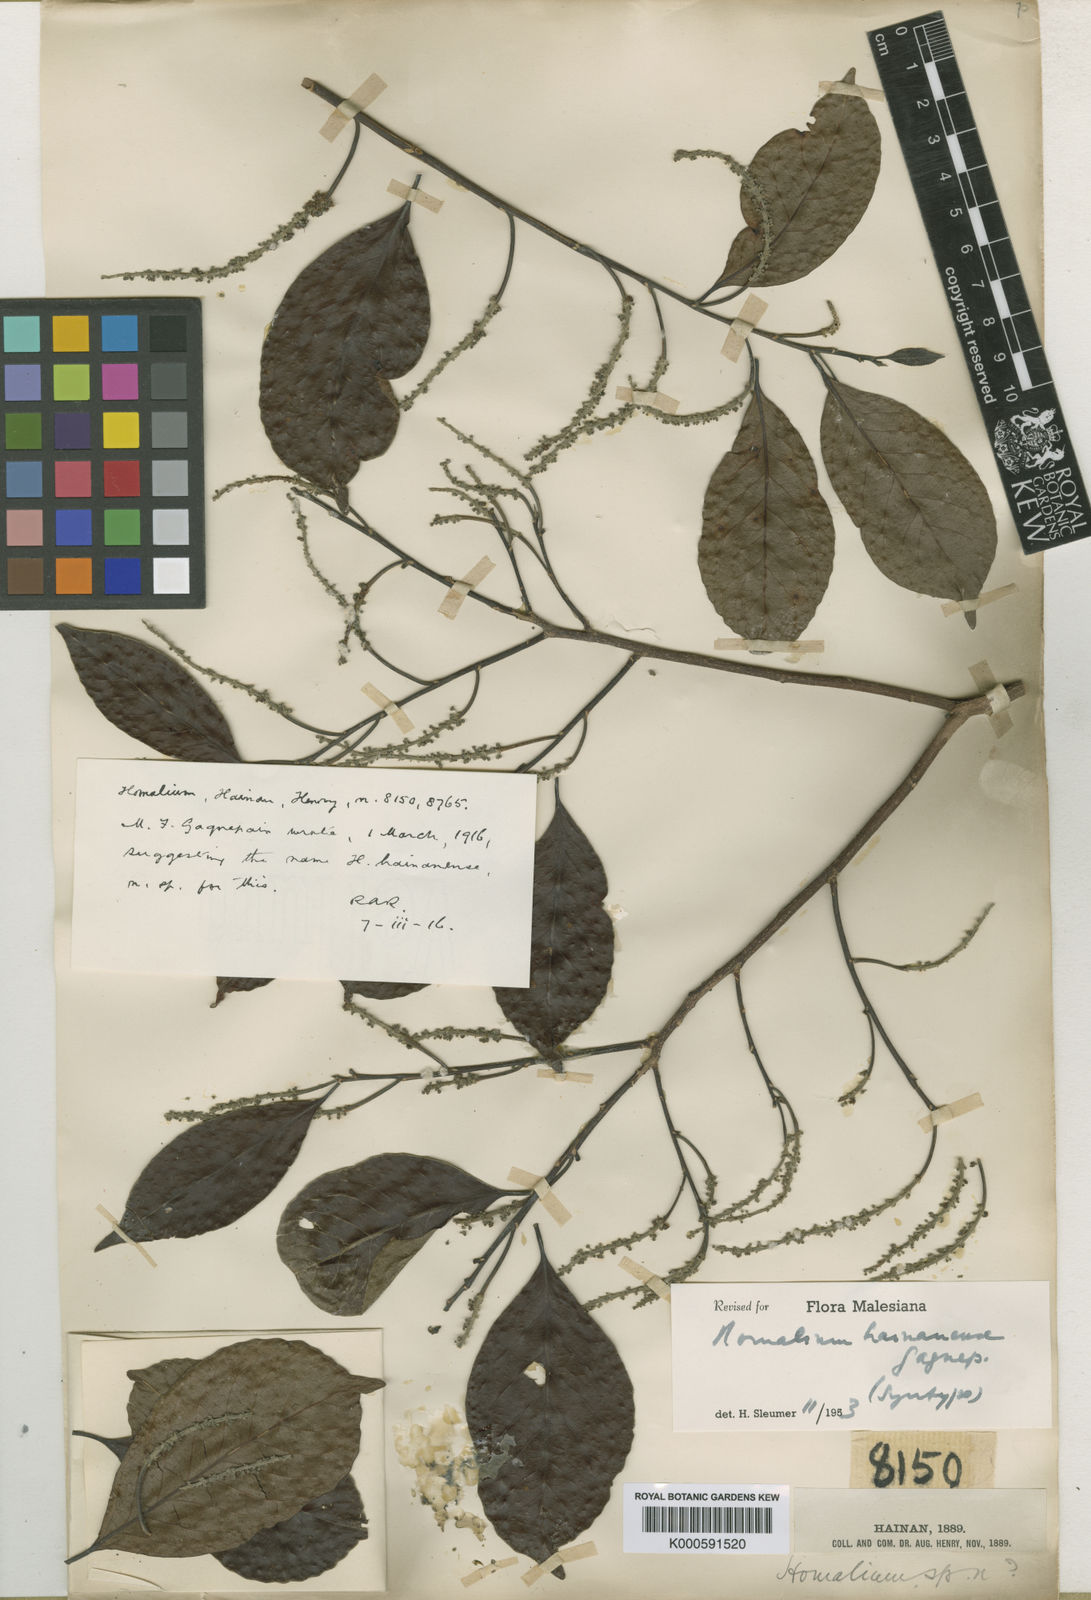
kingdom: Plantae
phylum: Tracheophyta
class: Magnoliopsida
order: Malpighiales
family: Salicaceae
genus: Homalium
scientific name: Homalium hainanense
